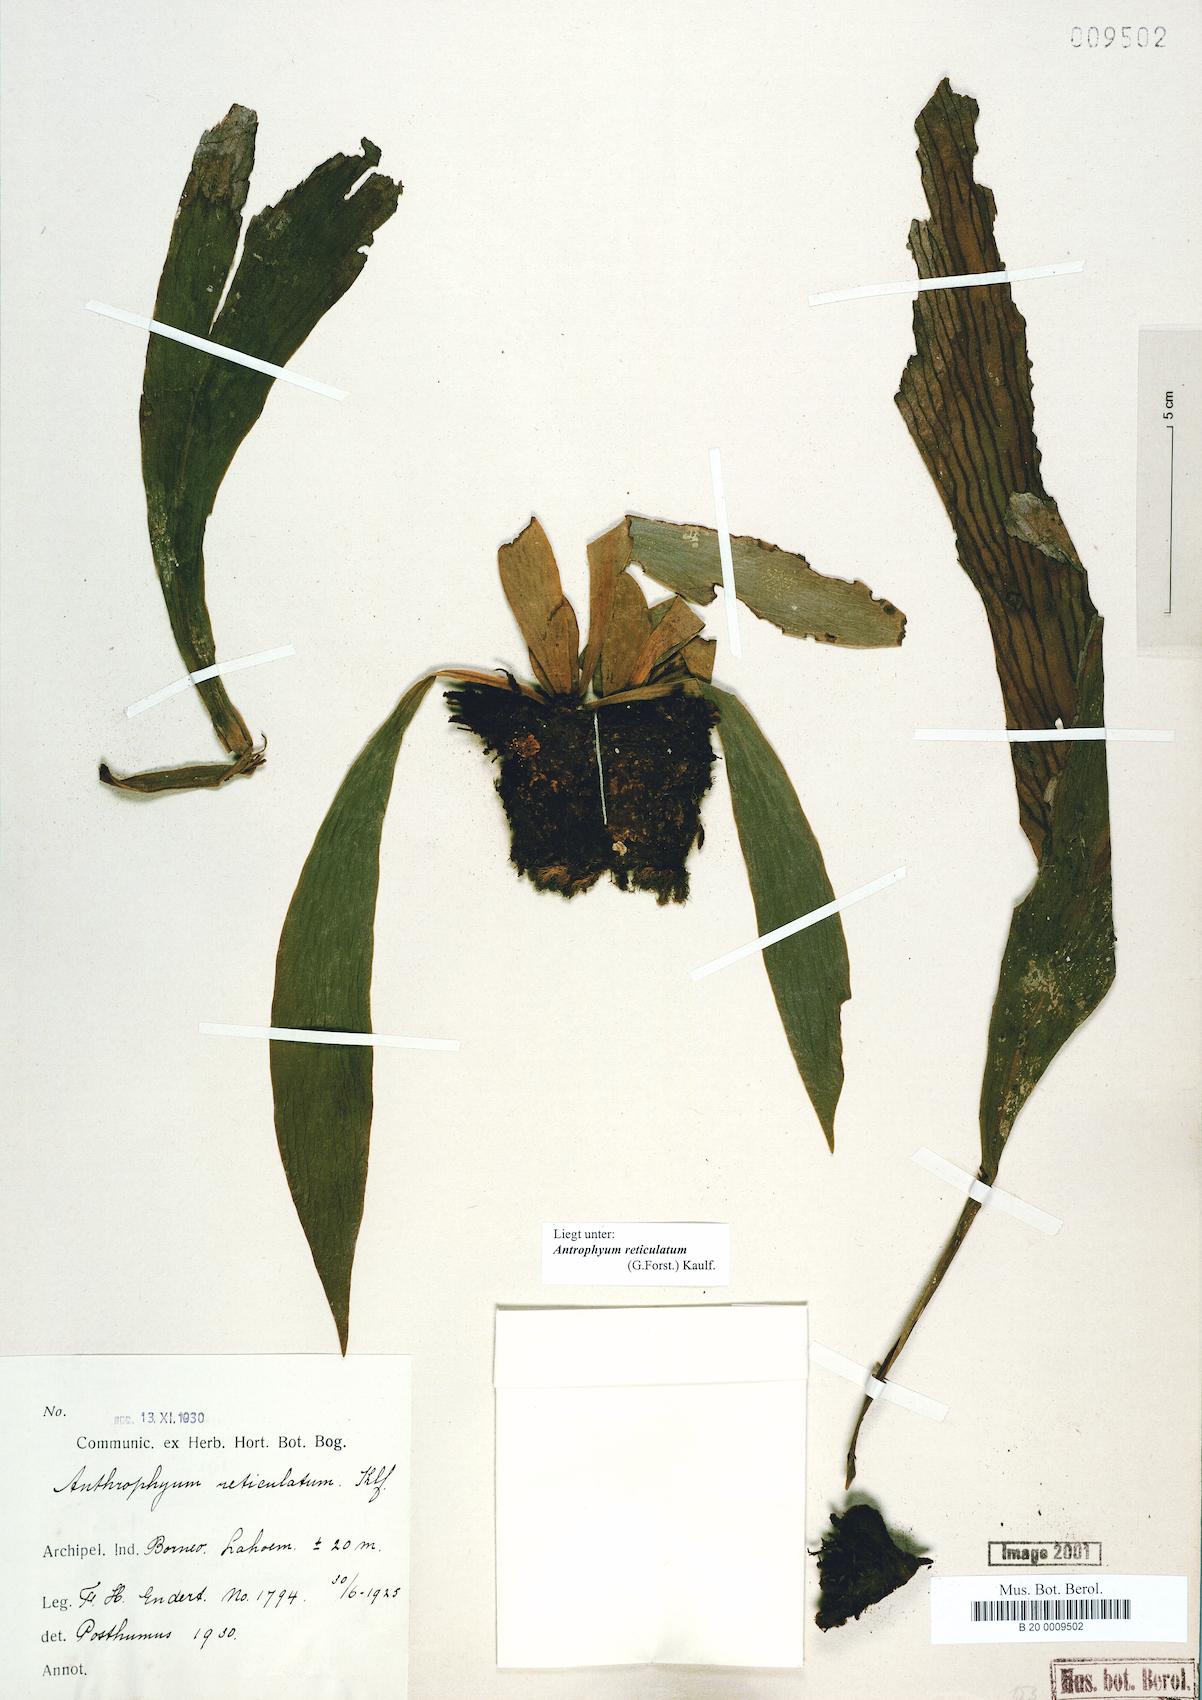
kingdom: Plantae
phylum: Tracheophyta
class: Polypodiopsida
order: Polypodiales
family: Pteridaceae
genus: Antrophyum
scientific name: Antrophyum reticulatum
